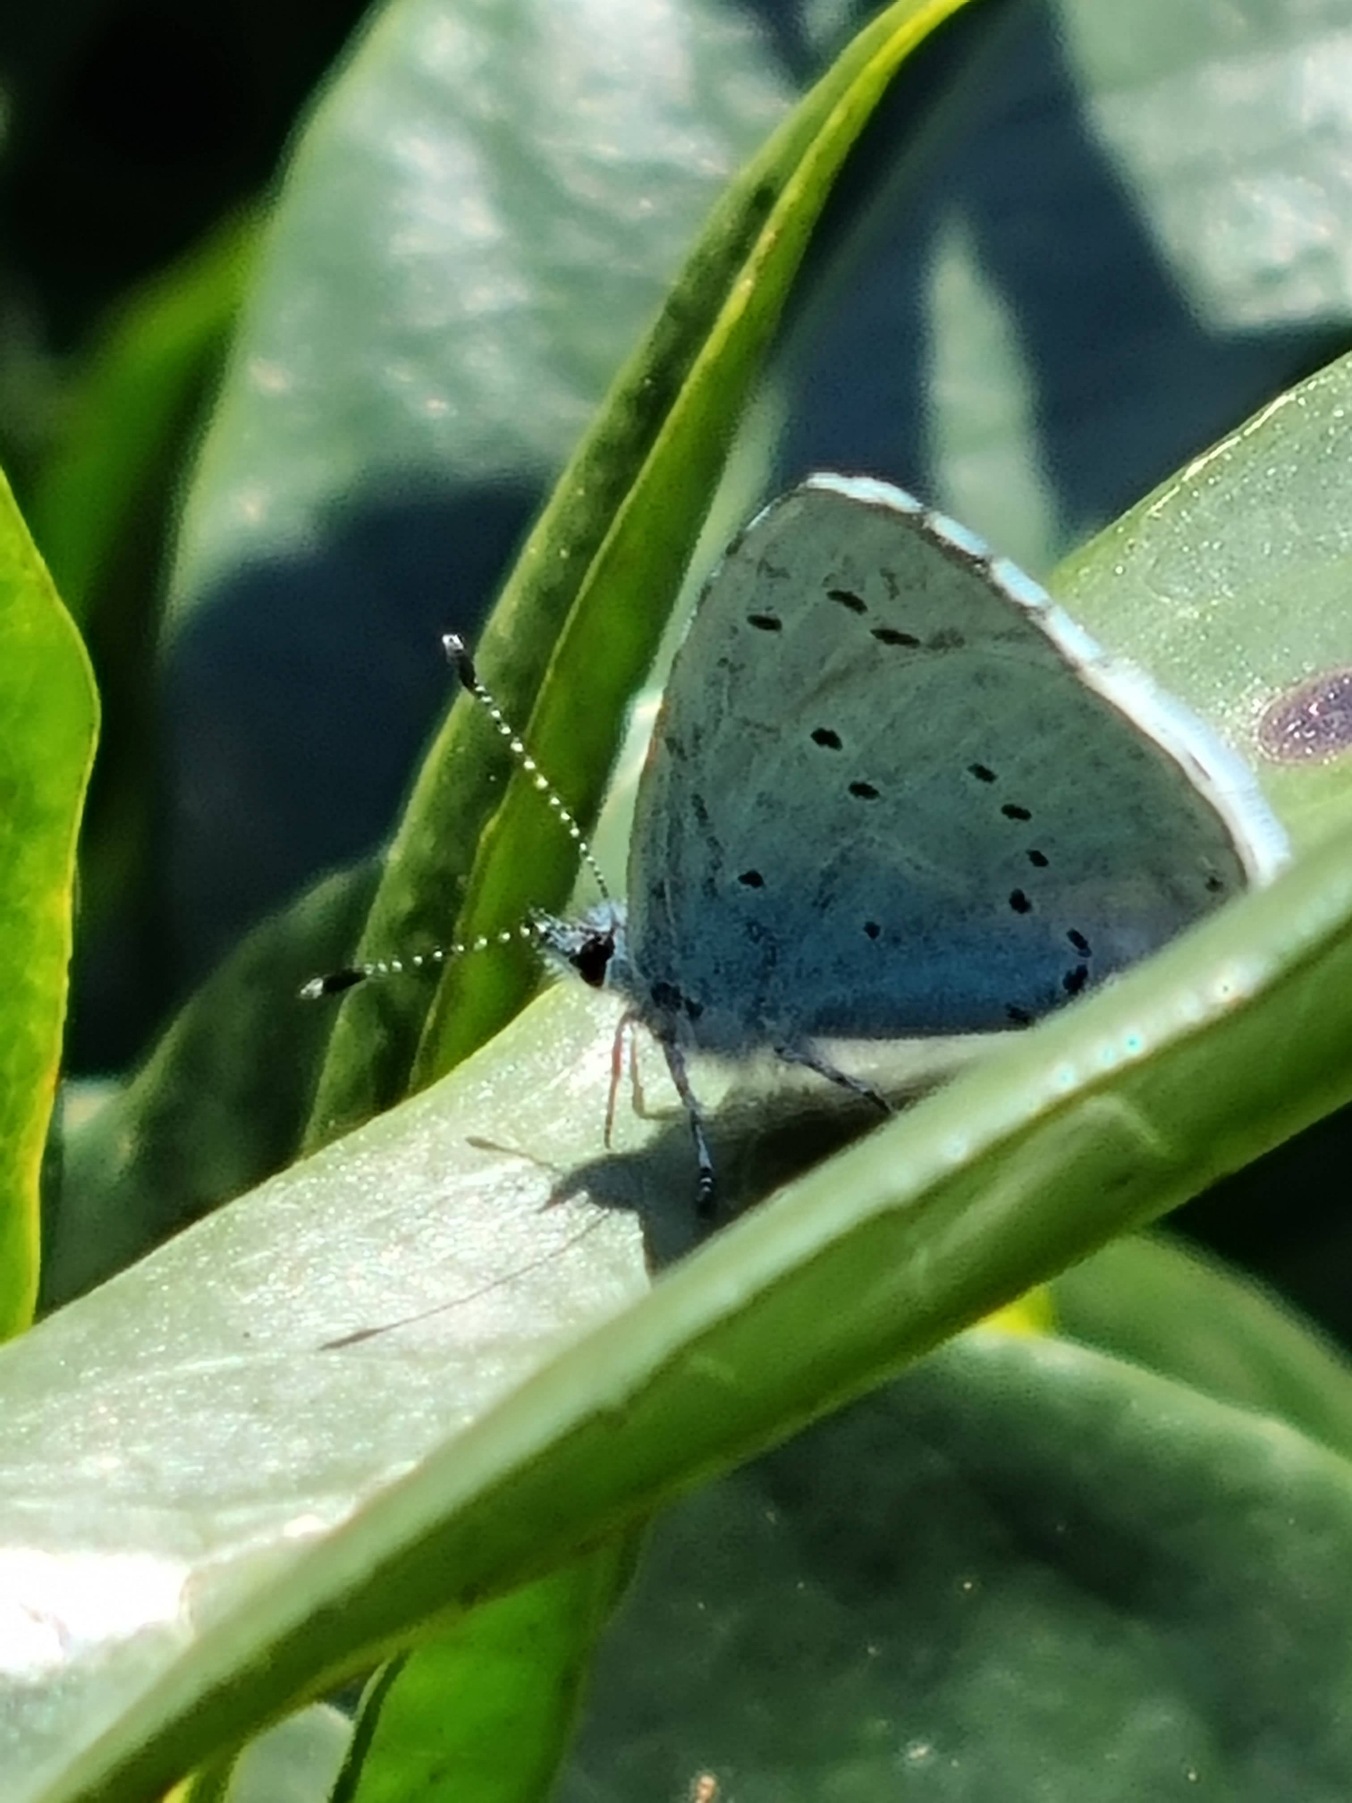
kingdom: Animalia
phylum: Arthropoda
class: Insecta
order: Lepidoptera
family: Lycaenidae
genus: Celastrina
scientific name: Celastrina argiolus
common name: Skovblåfugl
